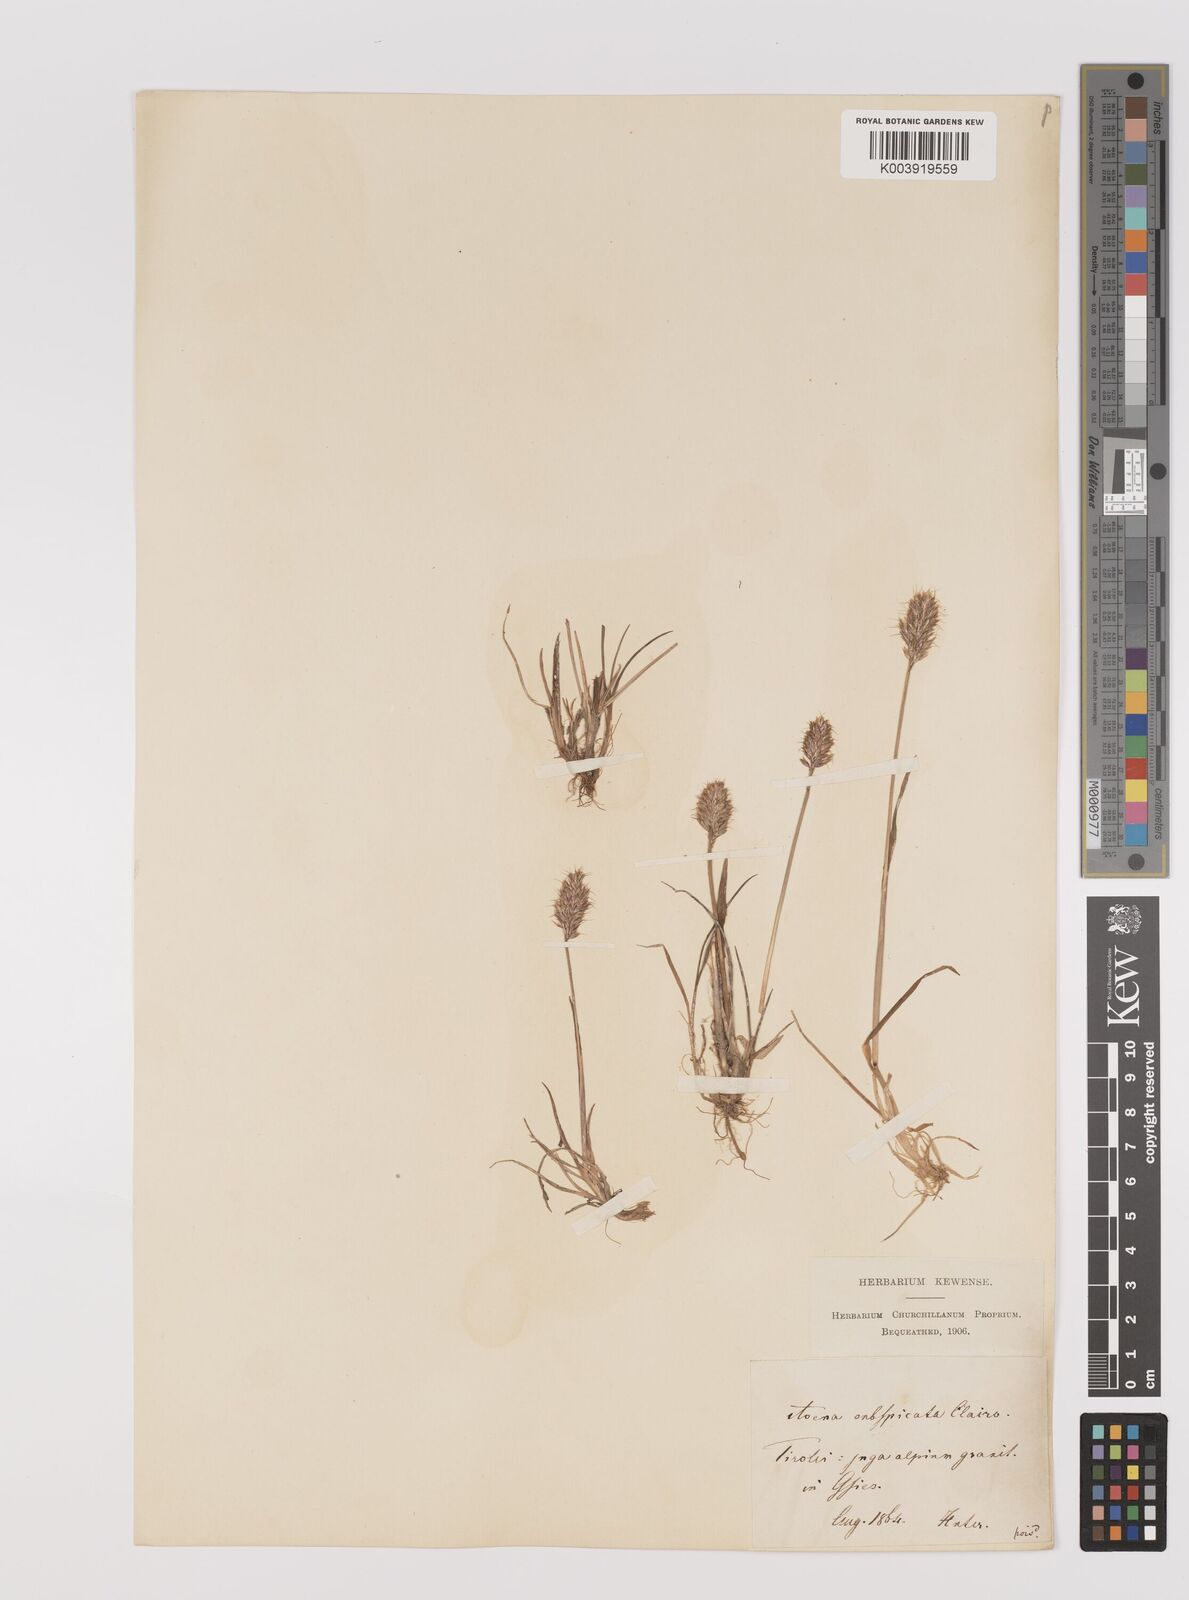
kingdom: Plantae
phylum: Tracheophyta
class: Liliopsida
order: Poales
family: Poaceae
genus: Koeleria
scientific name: Koeleria spicata
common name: Mountain trisetum
